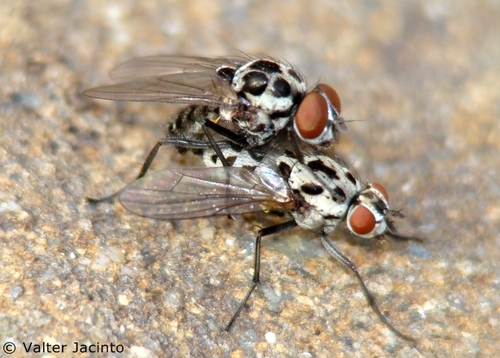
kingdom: Animalia
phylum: Arthropoda
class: Insecta
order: Diptera
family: Anthomyiidae
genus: Anthomyia
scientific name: Anthomyia pluvialis
